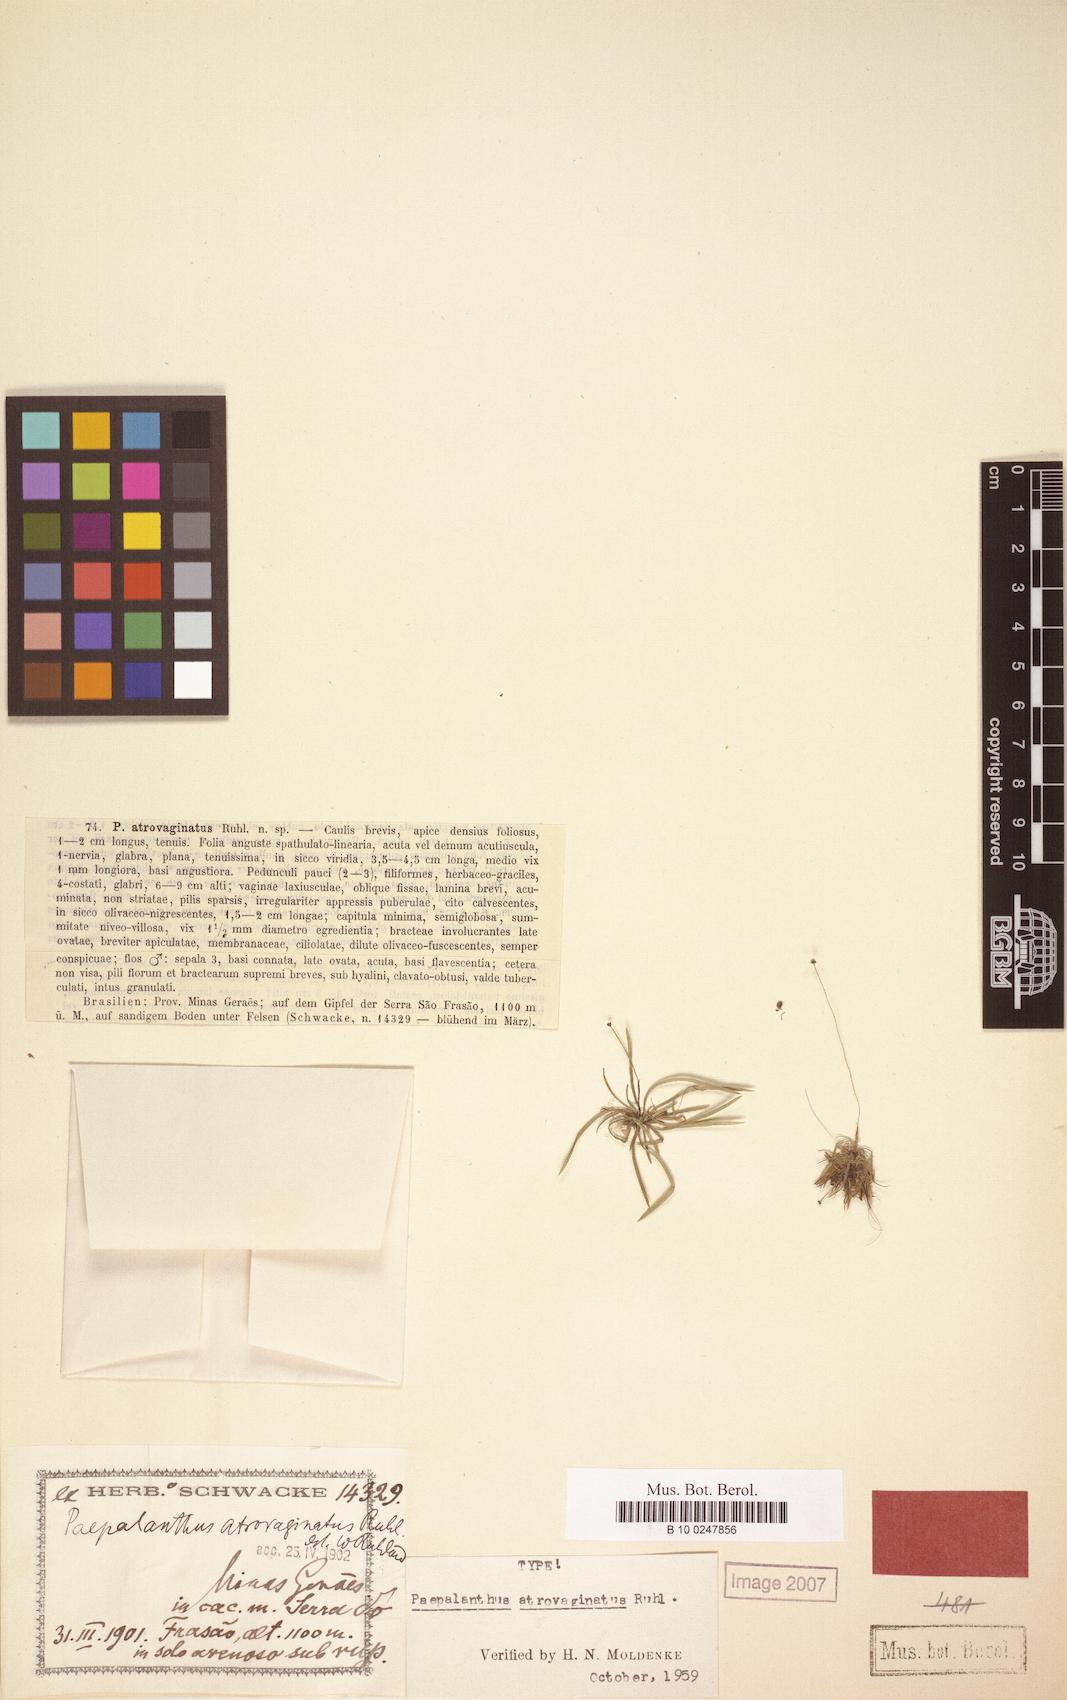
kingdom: Plantae
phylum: Tracheophyta
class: Liliopsida
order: Poales
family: Eriocaulaceae
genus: Paepalanthus
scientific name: Paepalanthus atrovaginatus
